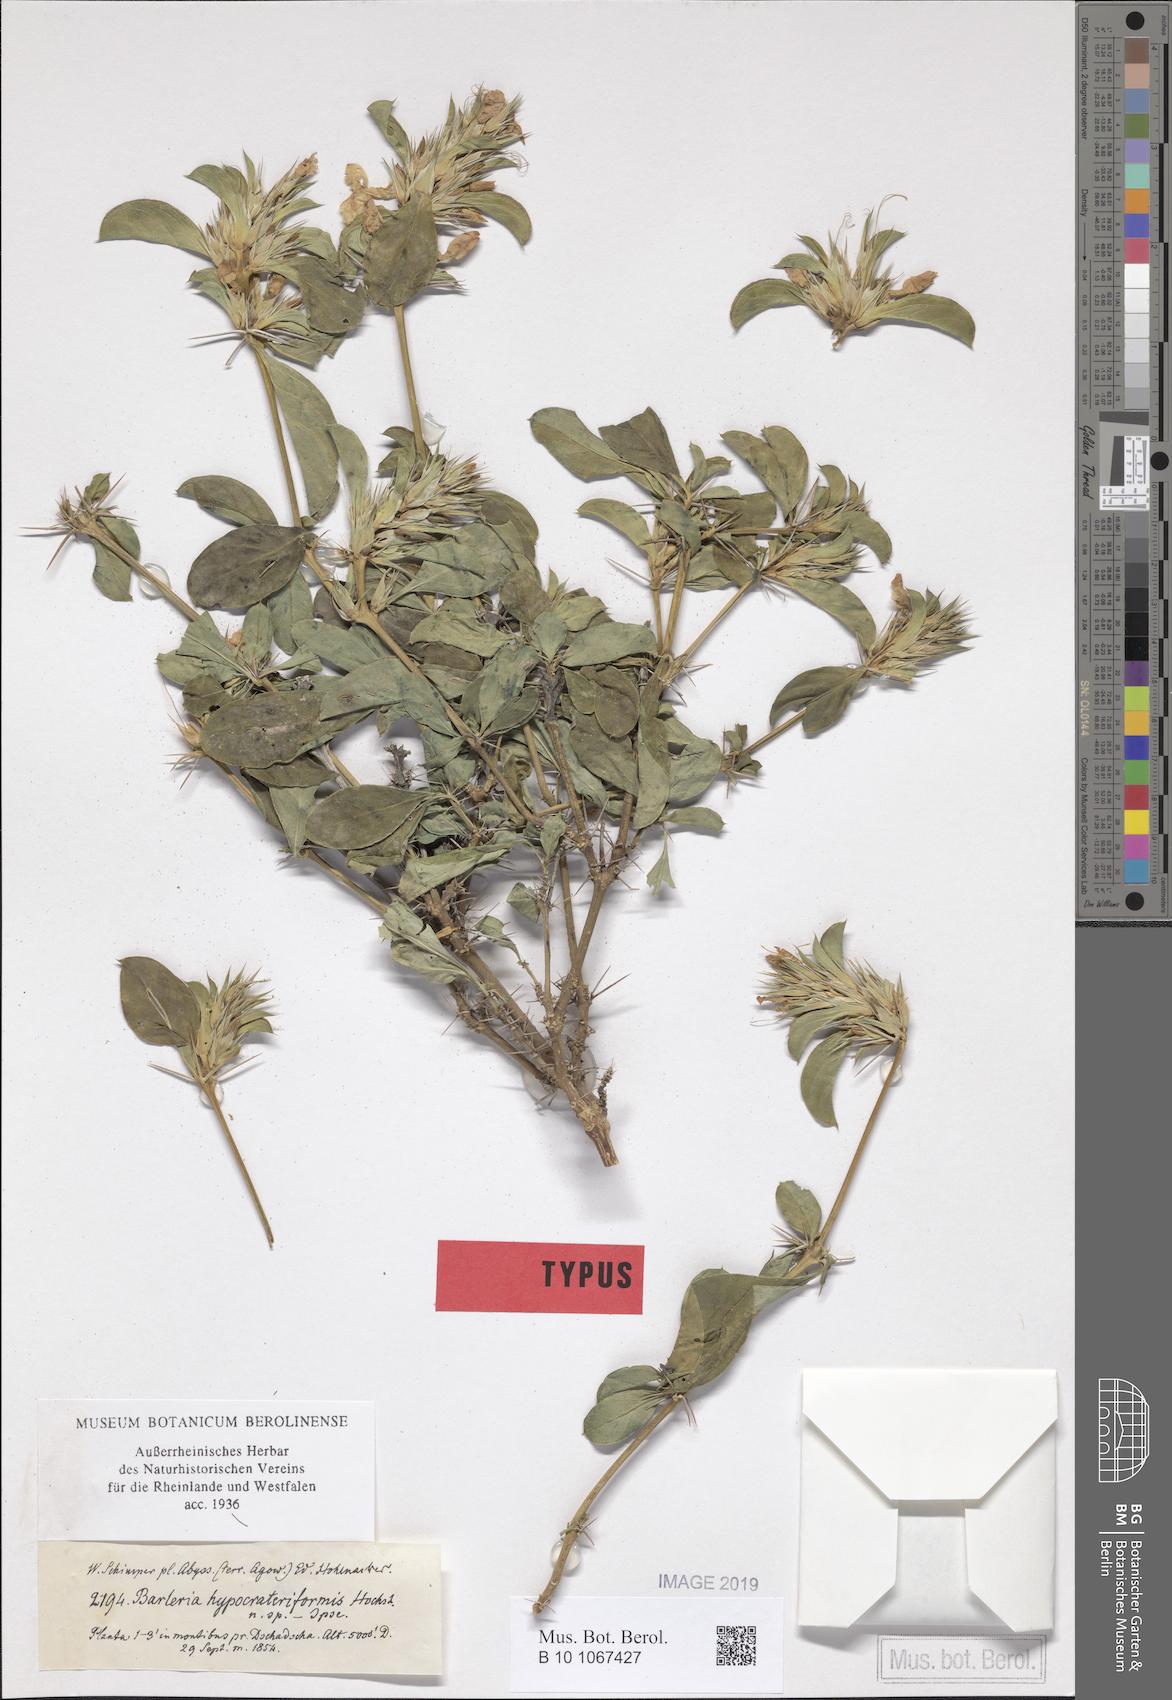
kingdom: Plantae
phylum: Tracheophyta
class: Magnoliopsida
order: Lamiales
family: Acanthaceae
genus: Barleria
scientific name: Barleria eranthemoides
